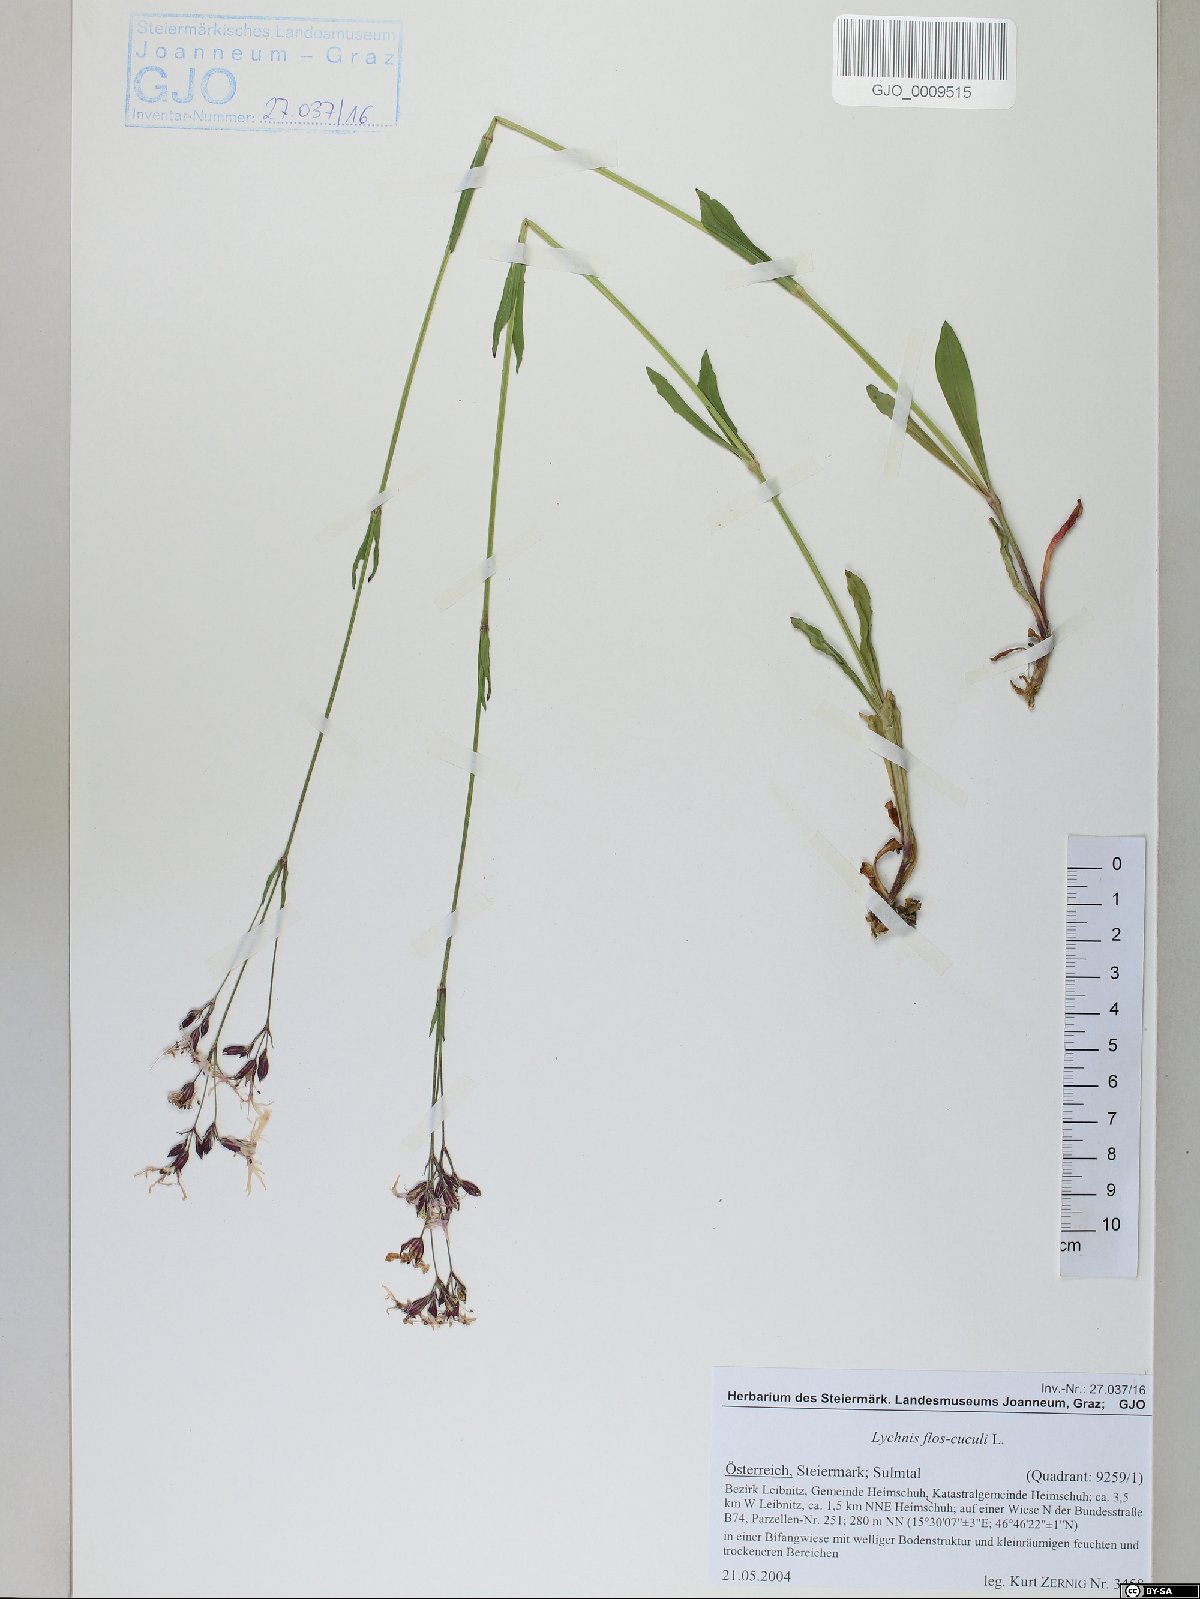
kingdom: Plantae
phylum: Tracheophyta
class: Magnoliopsida
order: Caryophyllales
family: Caryophyllaceae
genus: Silene
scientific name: Silene flos-cuculi
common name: Ragged-robin
